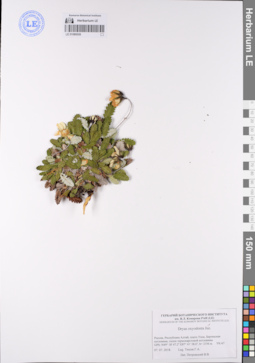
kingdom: Plantae
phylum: Tracheophyta
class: Magnoliopsida
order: Rosales
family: Rosaceae
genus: Dryas
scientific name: Dryas octopetala
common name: Eight-petal mountain-avens
